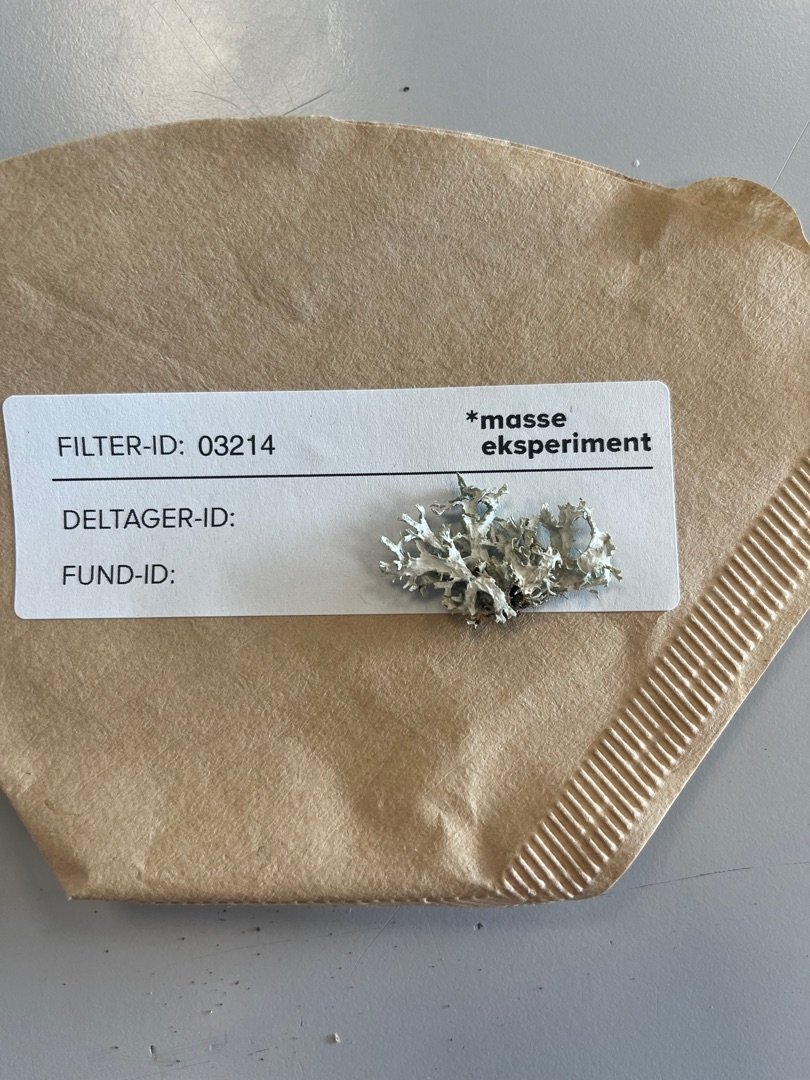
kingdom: Fungi
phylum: Ascomycota
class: Lecanoromycetes
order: Lecanorales
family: Parmeliaceae
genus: Evernia
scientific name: Evernia prunastri
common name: Almindelig slåenlav
